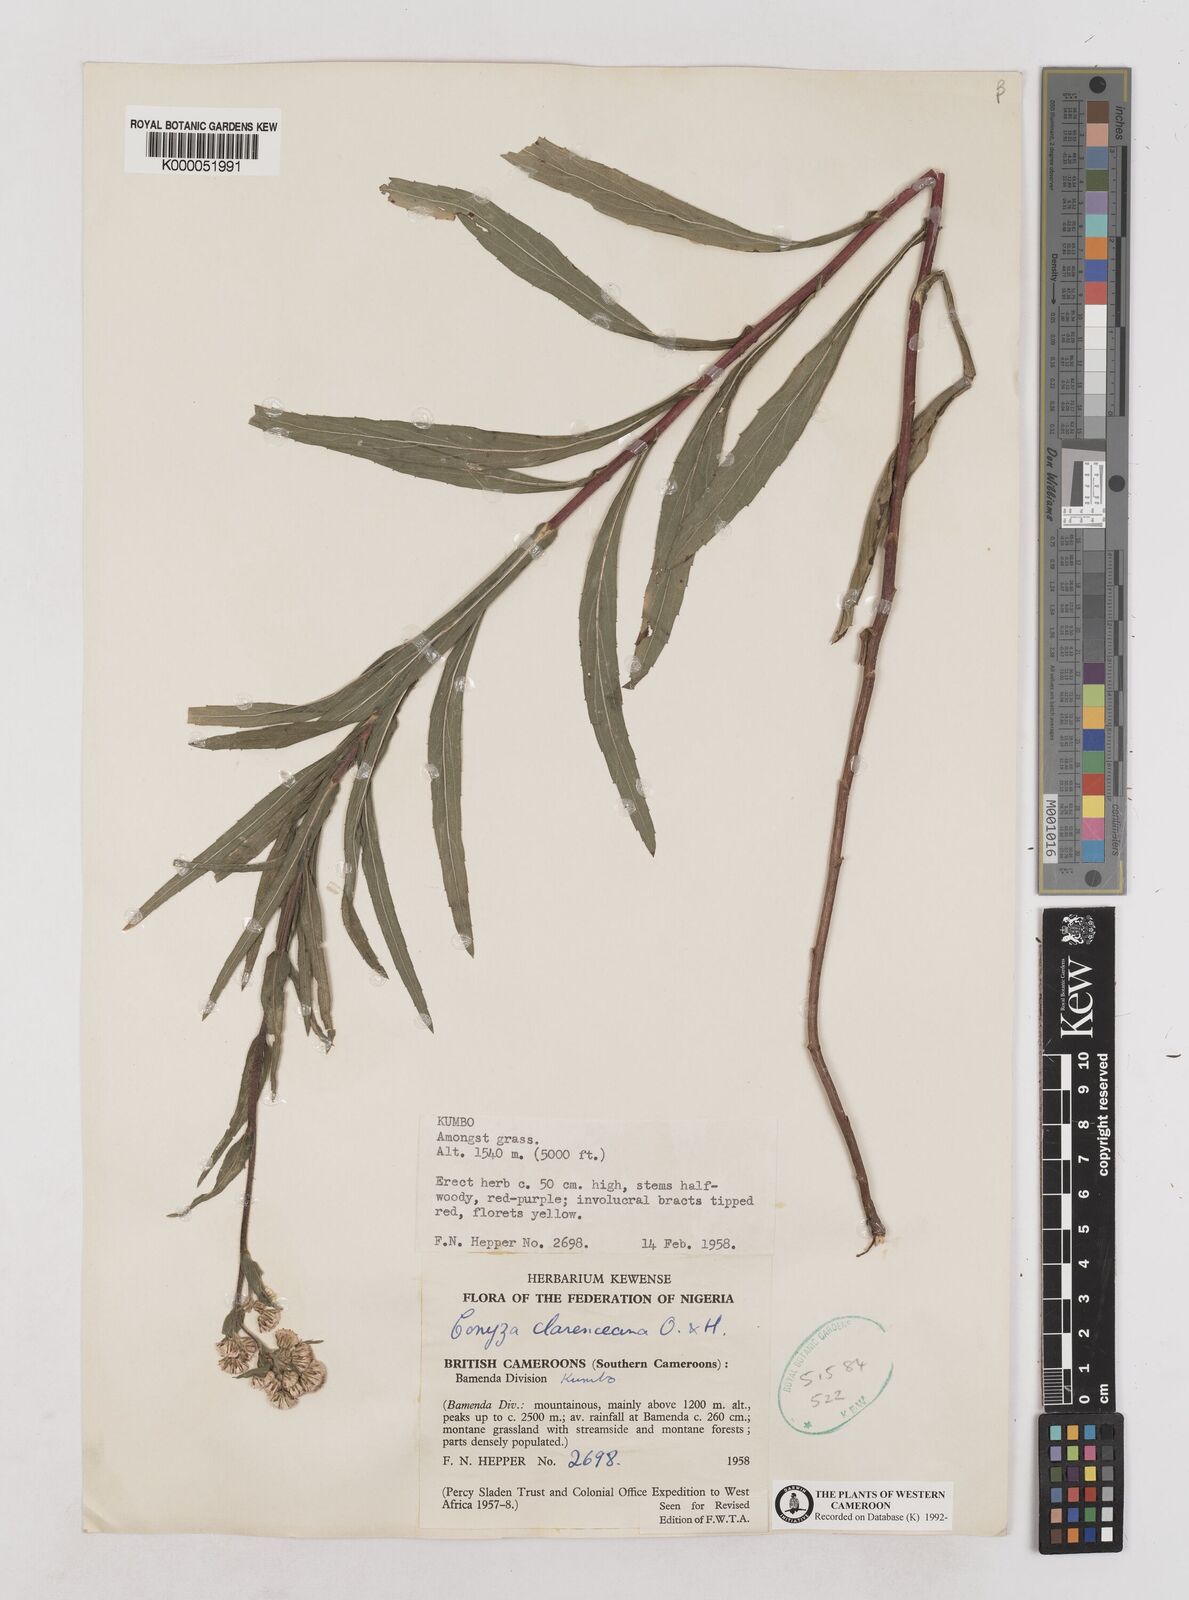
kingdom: Plantae
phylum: Tracheophyta
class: Magnoliopsida
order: Asterales
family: Asteraceae
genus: Conyza
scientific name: Conyza baumii
